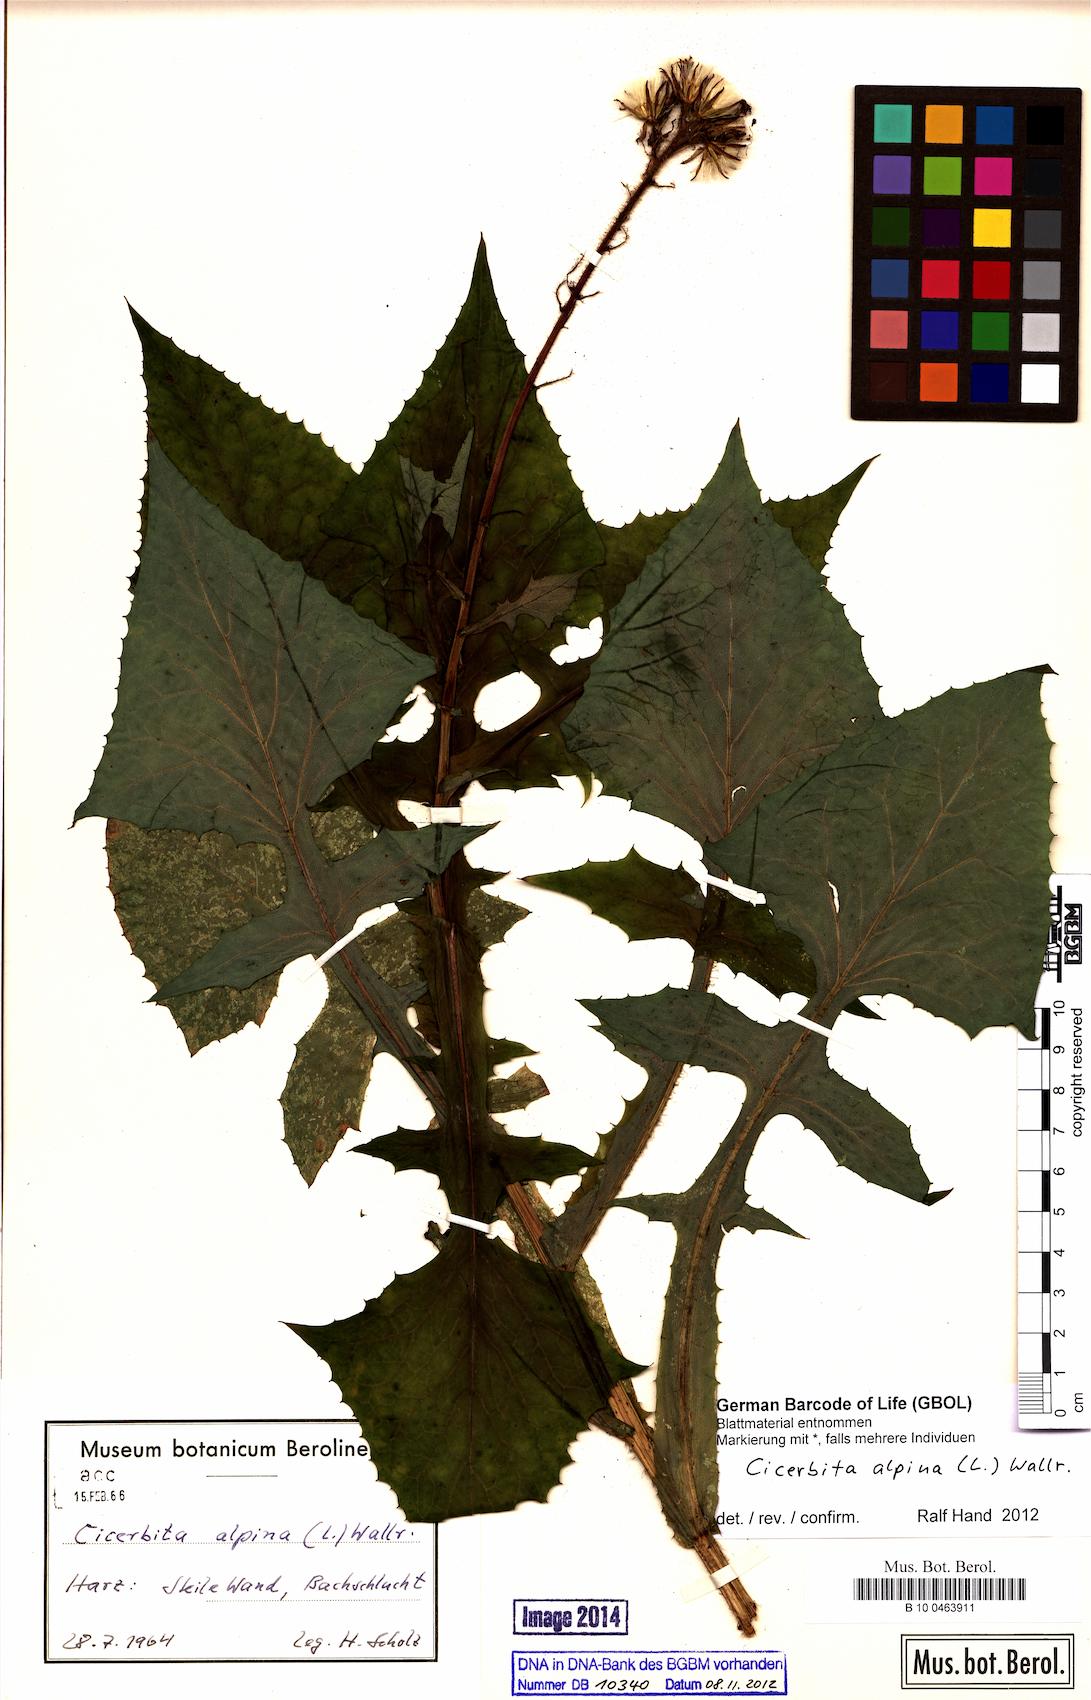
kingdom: Plantae
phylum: Tracheophyta
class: Magnoliopsida
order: Asterales
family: Asteraceae
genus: Cicerbita
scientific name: Cicerbita alpina
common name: Alpine blue-sow-thistle
